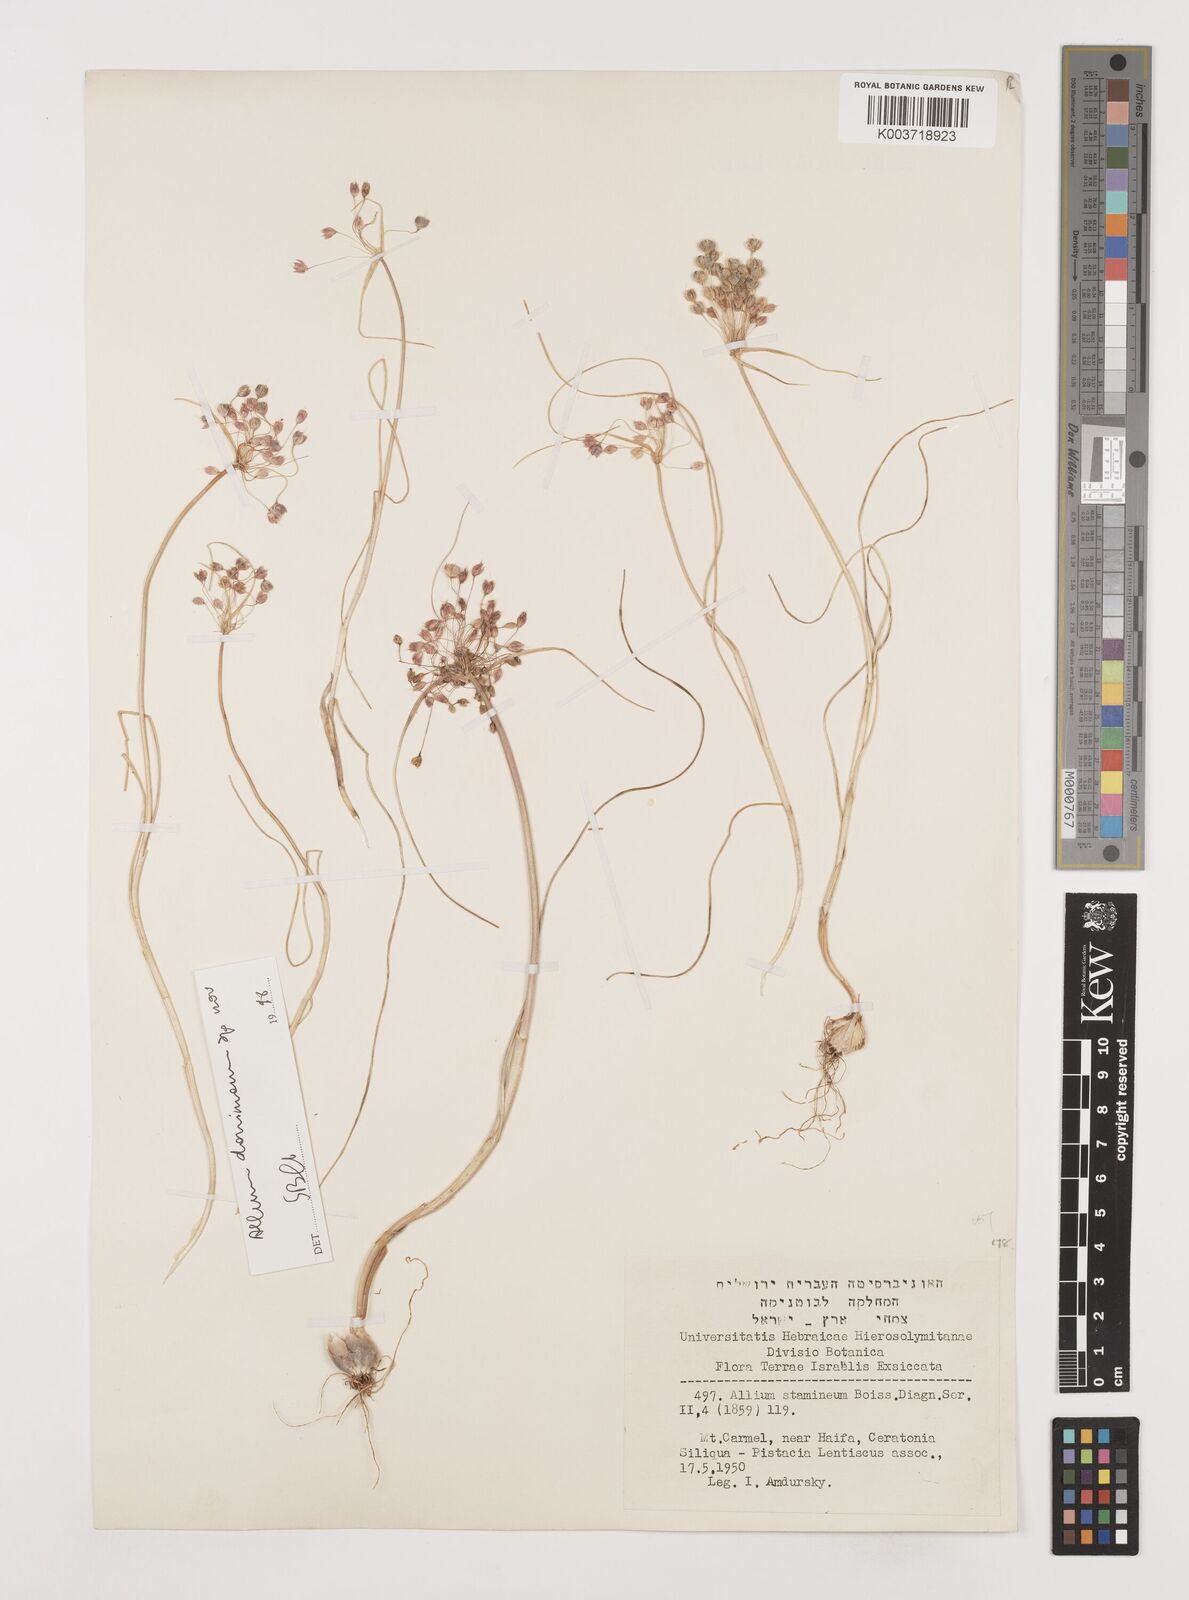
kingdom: Plantae
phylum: Tracheophyta
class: Liliopsida
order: Asparagales
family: Amaryllidaceae
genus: Allium
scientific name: Allium stamineum
